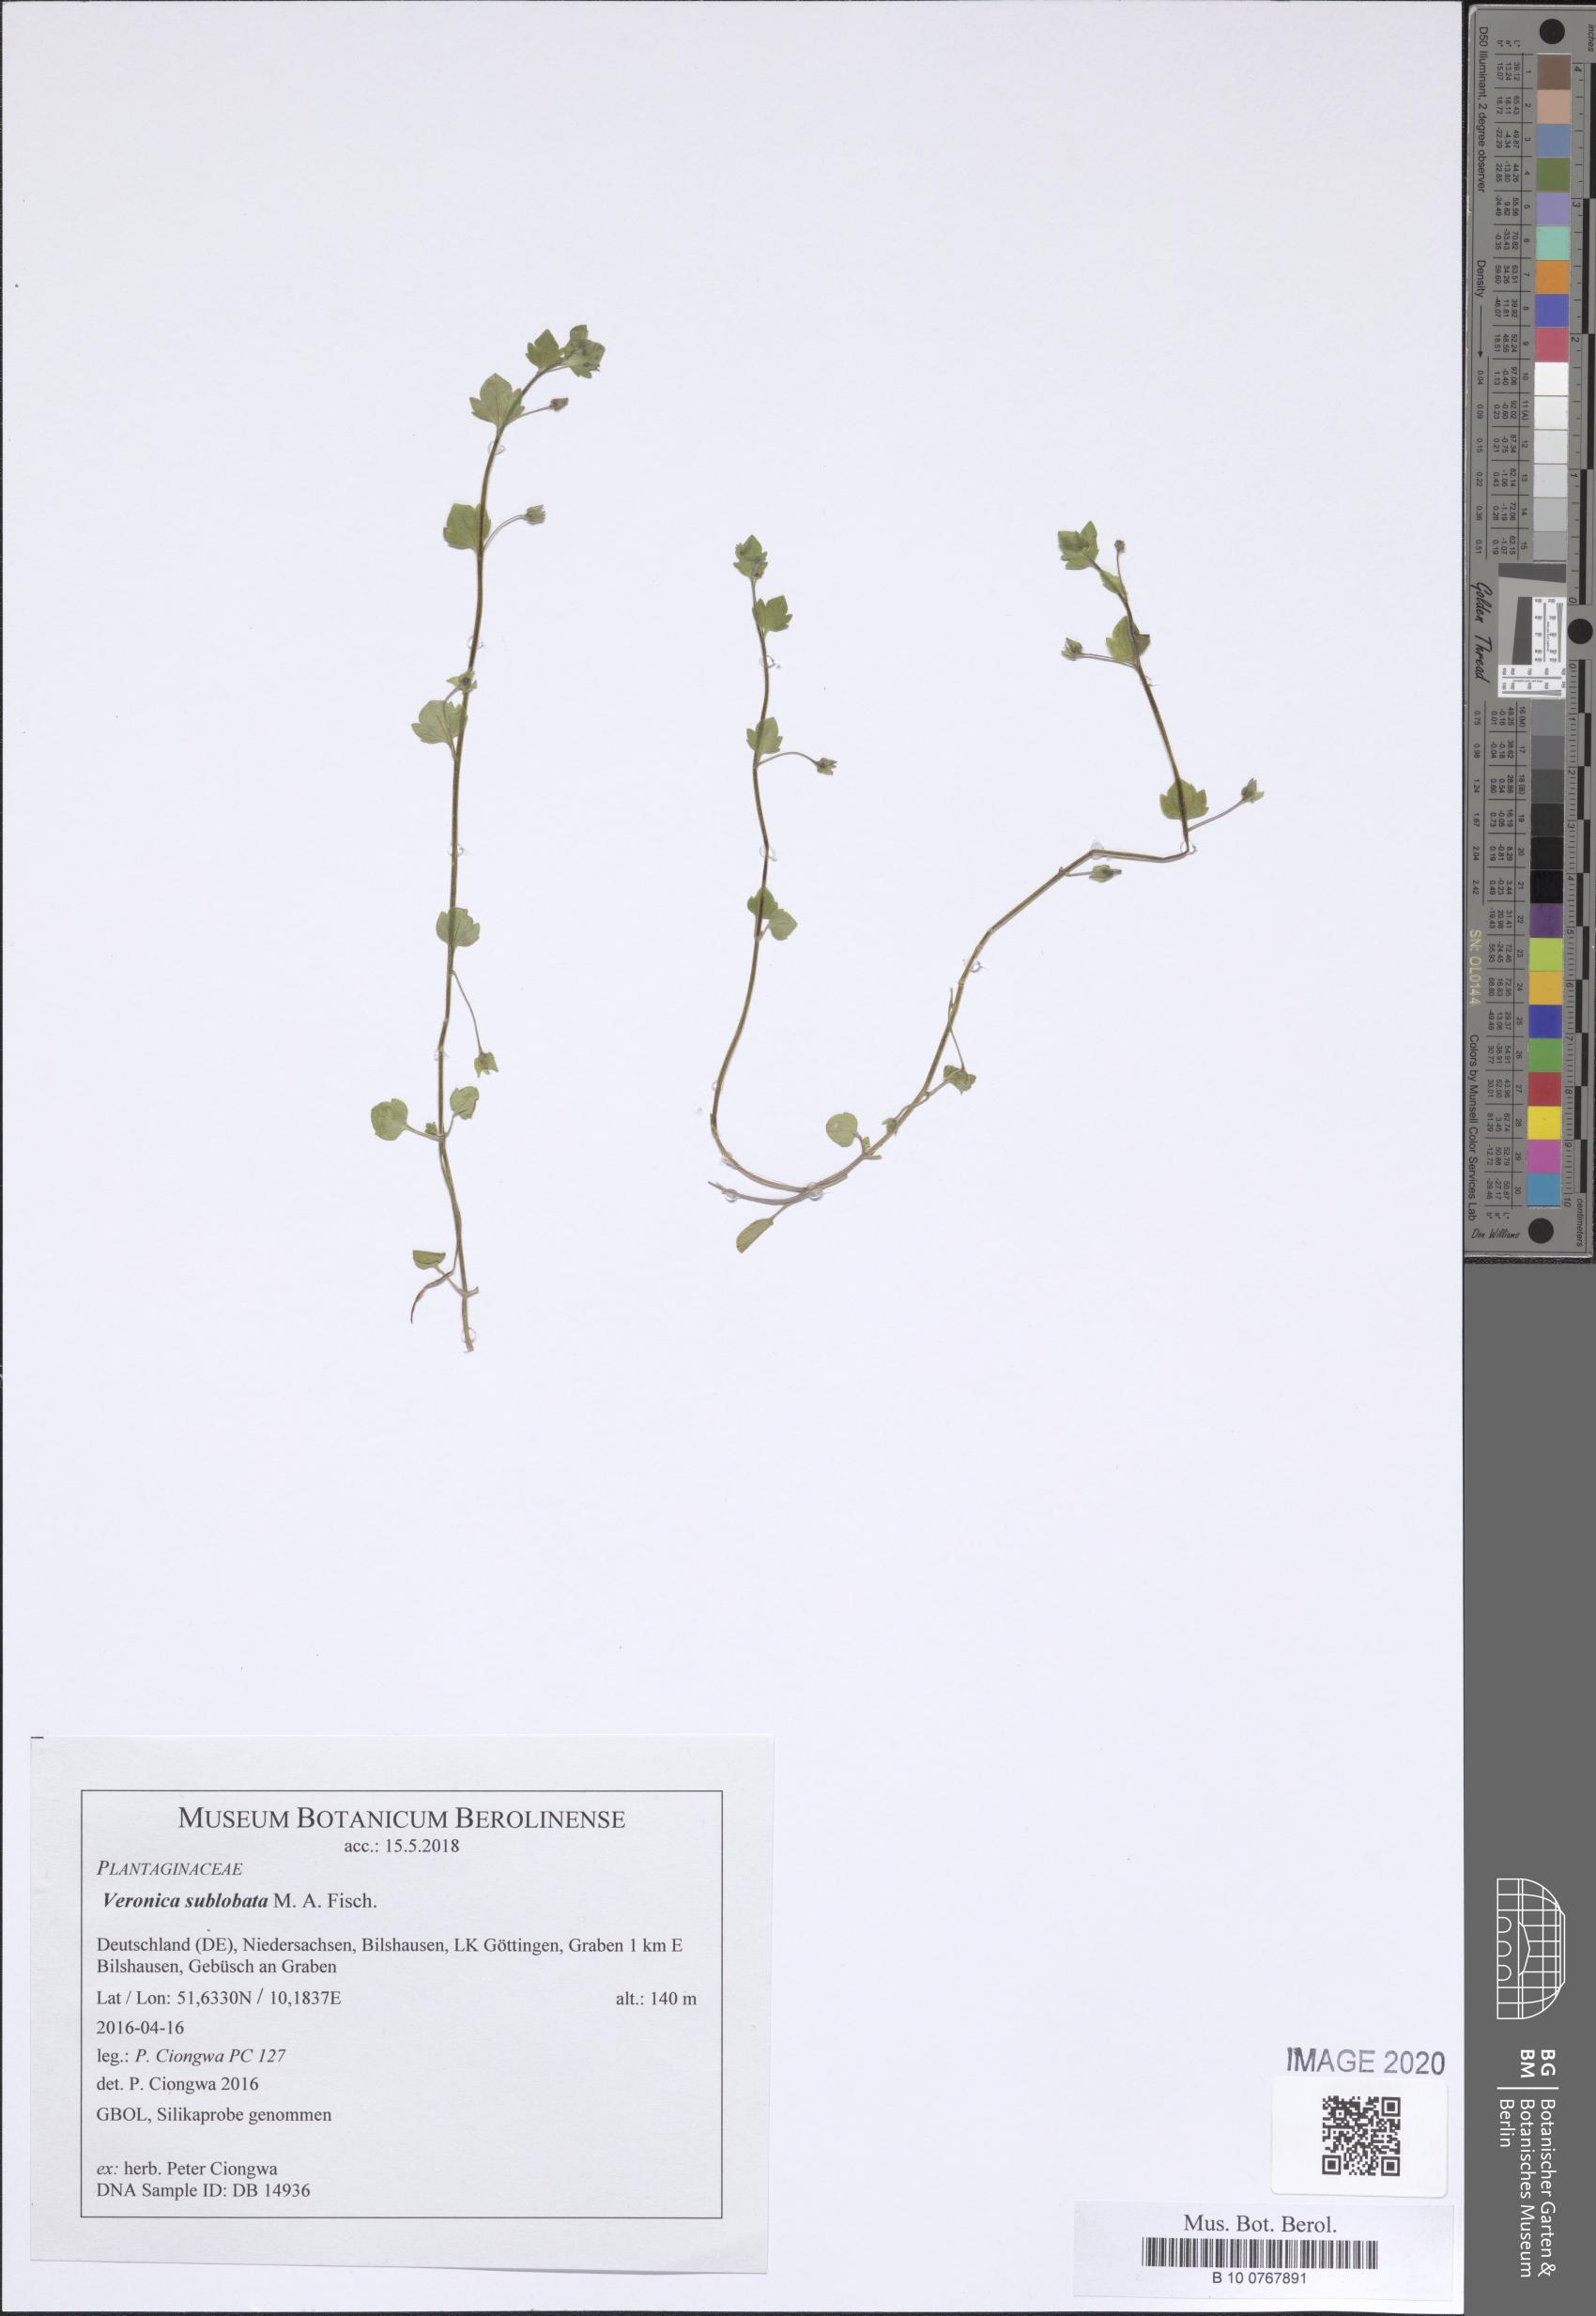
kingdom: Plantae
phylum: Tracheophyta
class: Magnoliopsida
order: Lamiales
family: Plantaginaceae
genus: Veronica
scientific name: Veronica sublobata
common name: False ivy-leaved speedwell
